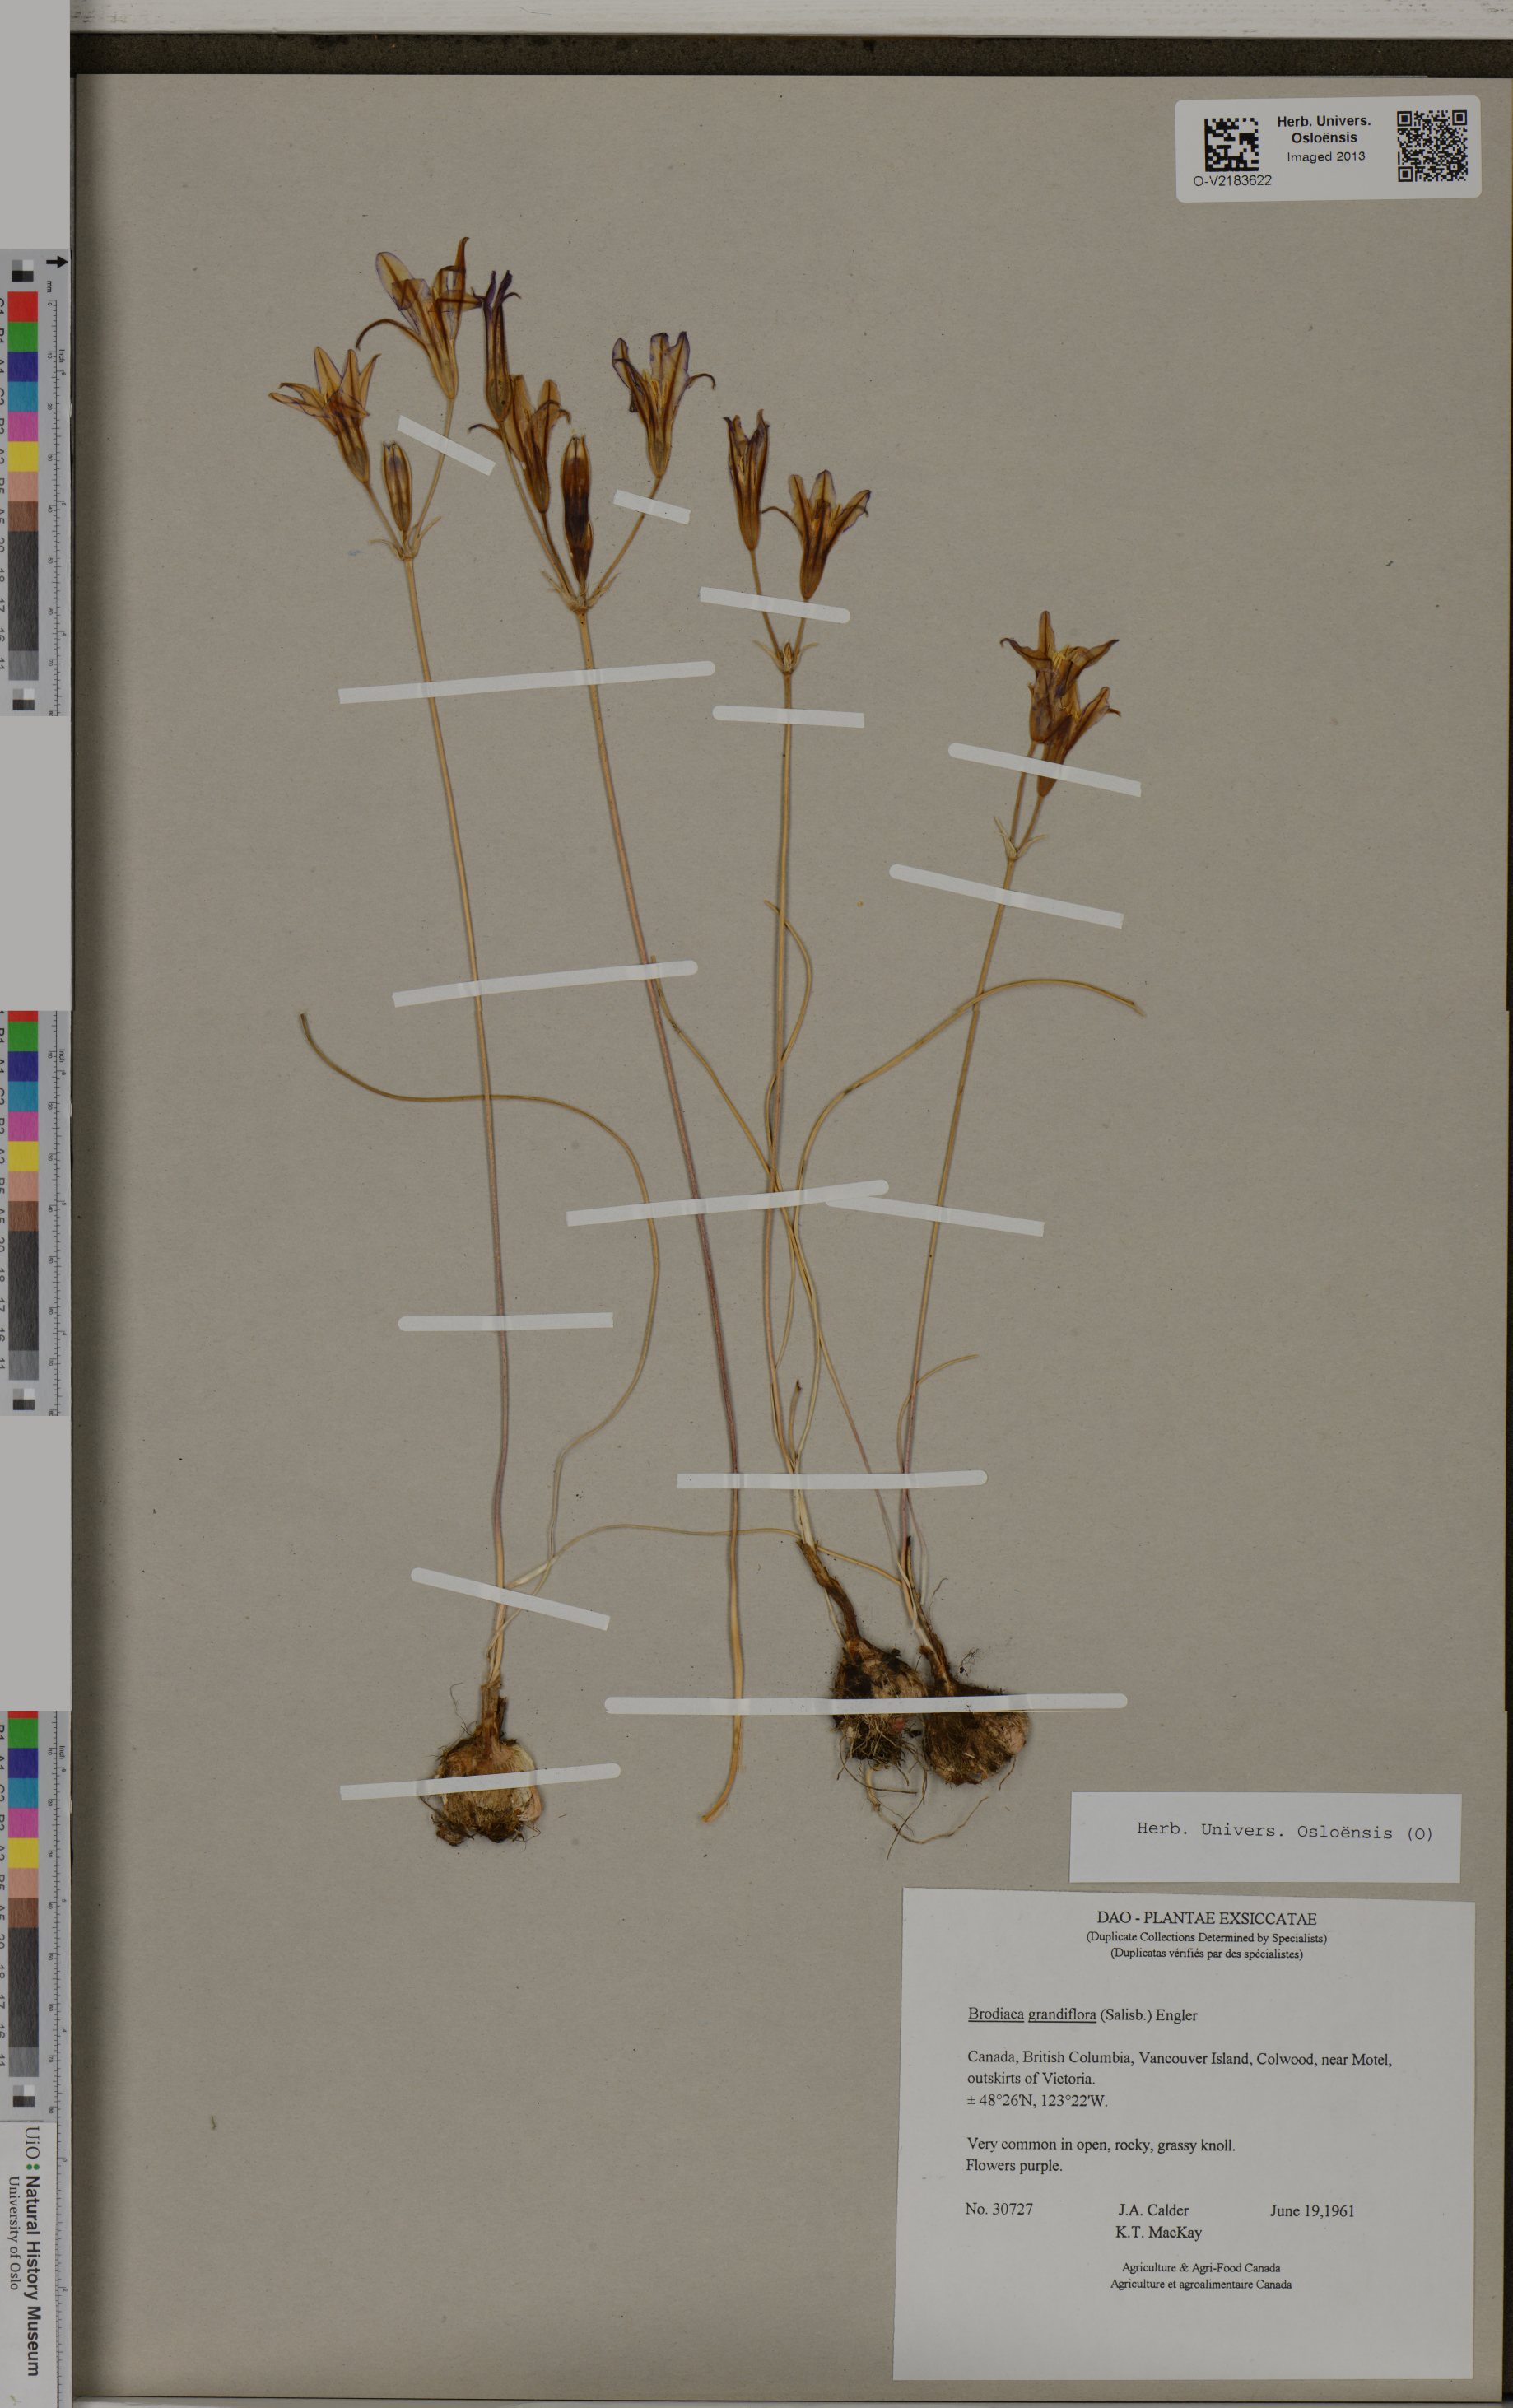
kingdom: Plantae
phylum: Tracheophyta
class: Liliopsida
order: Asparagales
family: Asparagaceae
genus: Brodiaea
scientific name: Brodiaea coronaria
